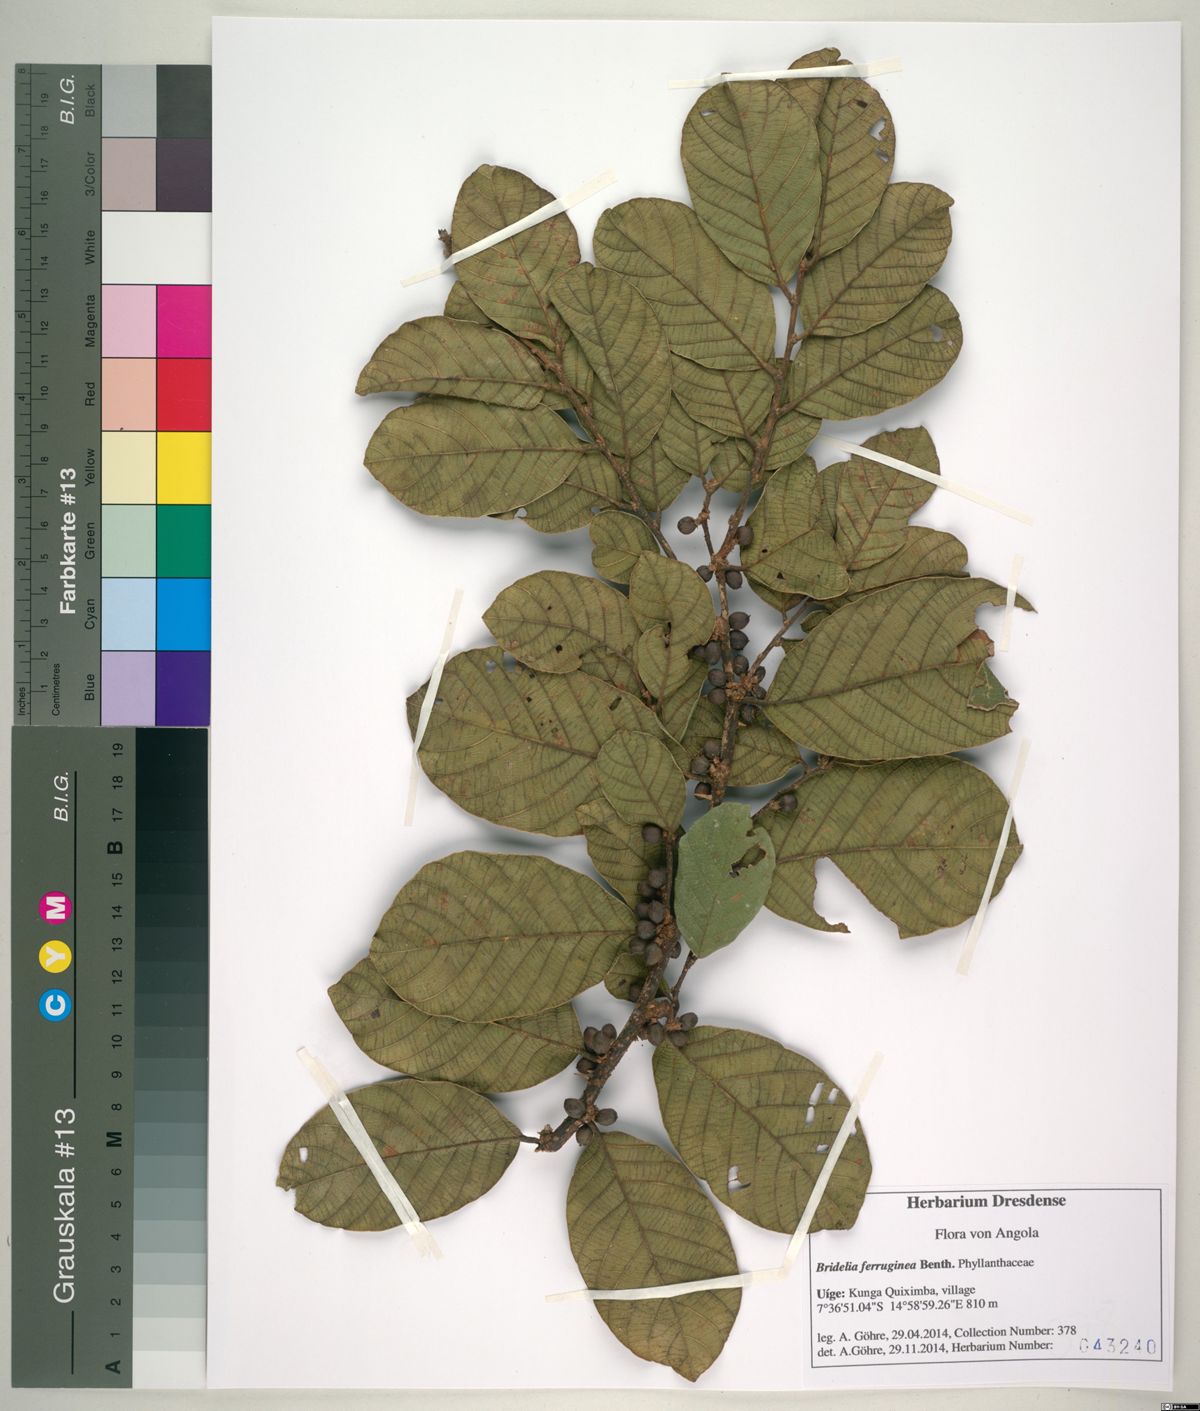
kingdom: Plantae
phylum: Tracheophyta
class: Magnoliopsida
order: Malpighiales
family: Phyllanthaceae
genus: Bridelia
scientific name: Bridelia ferruginea
